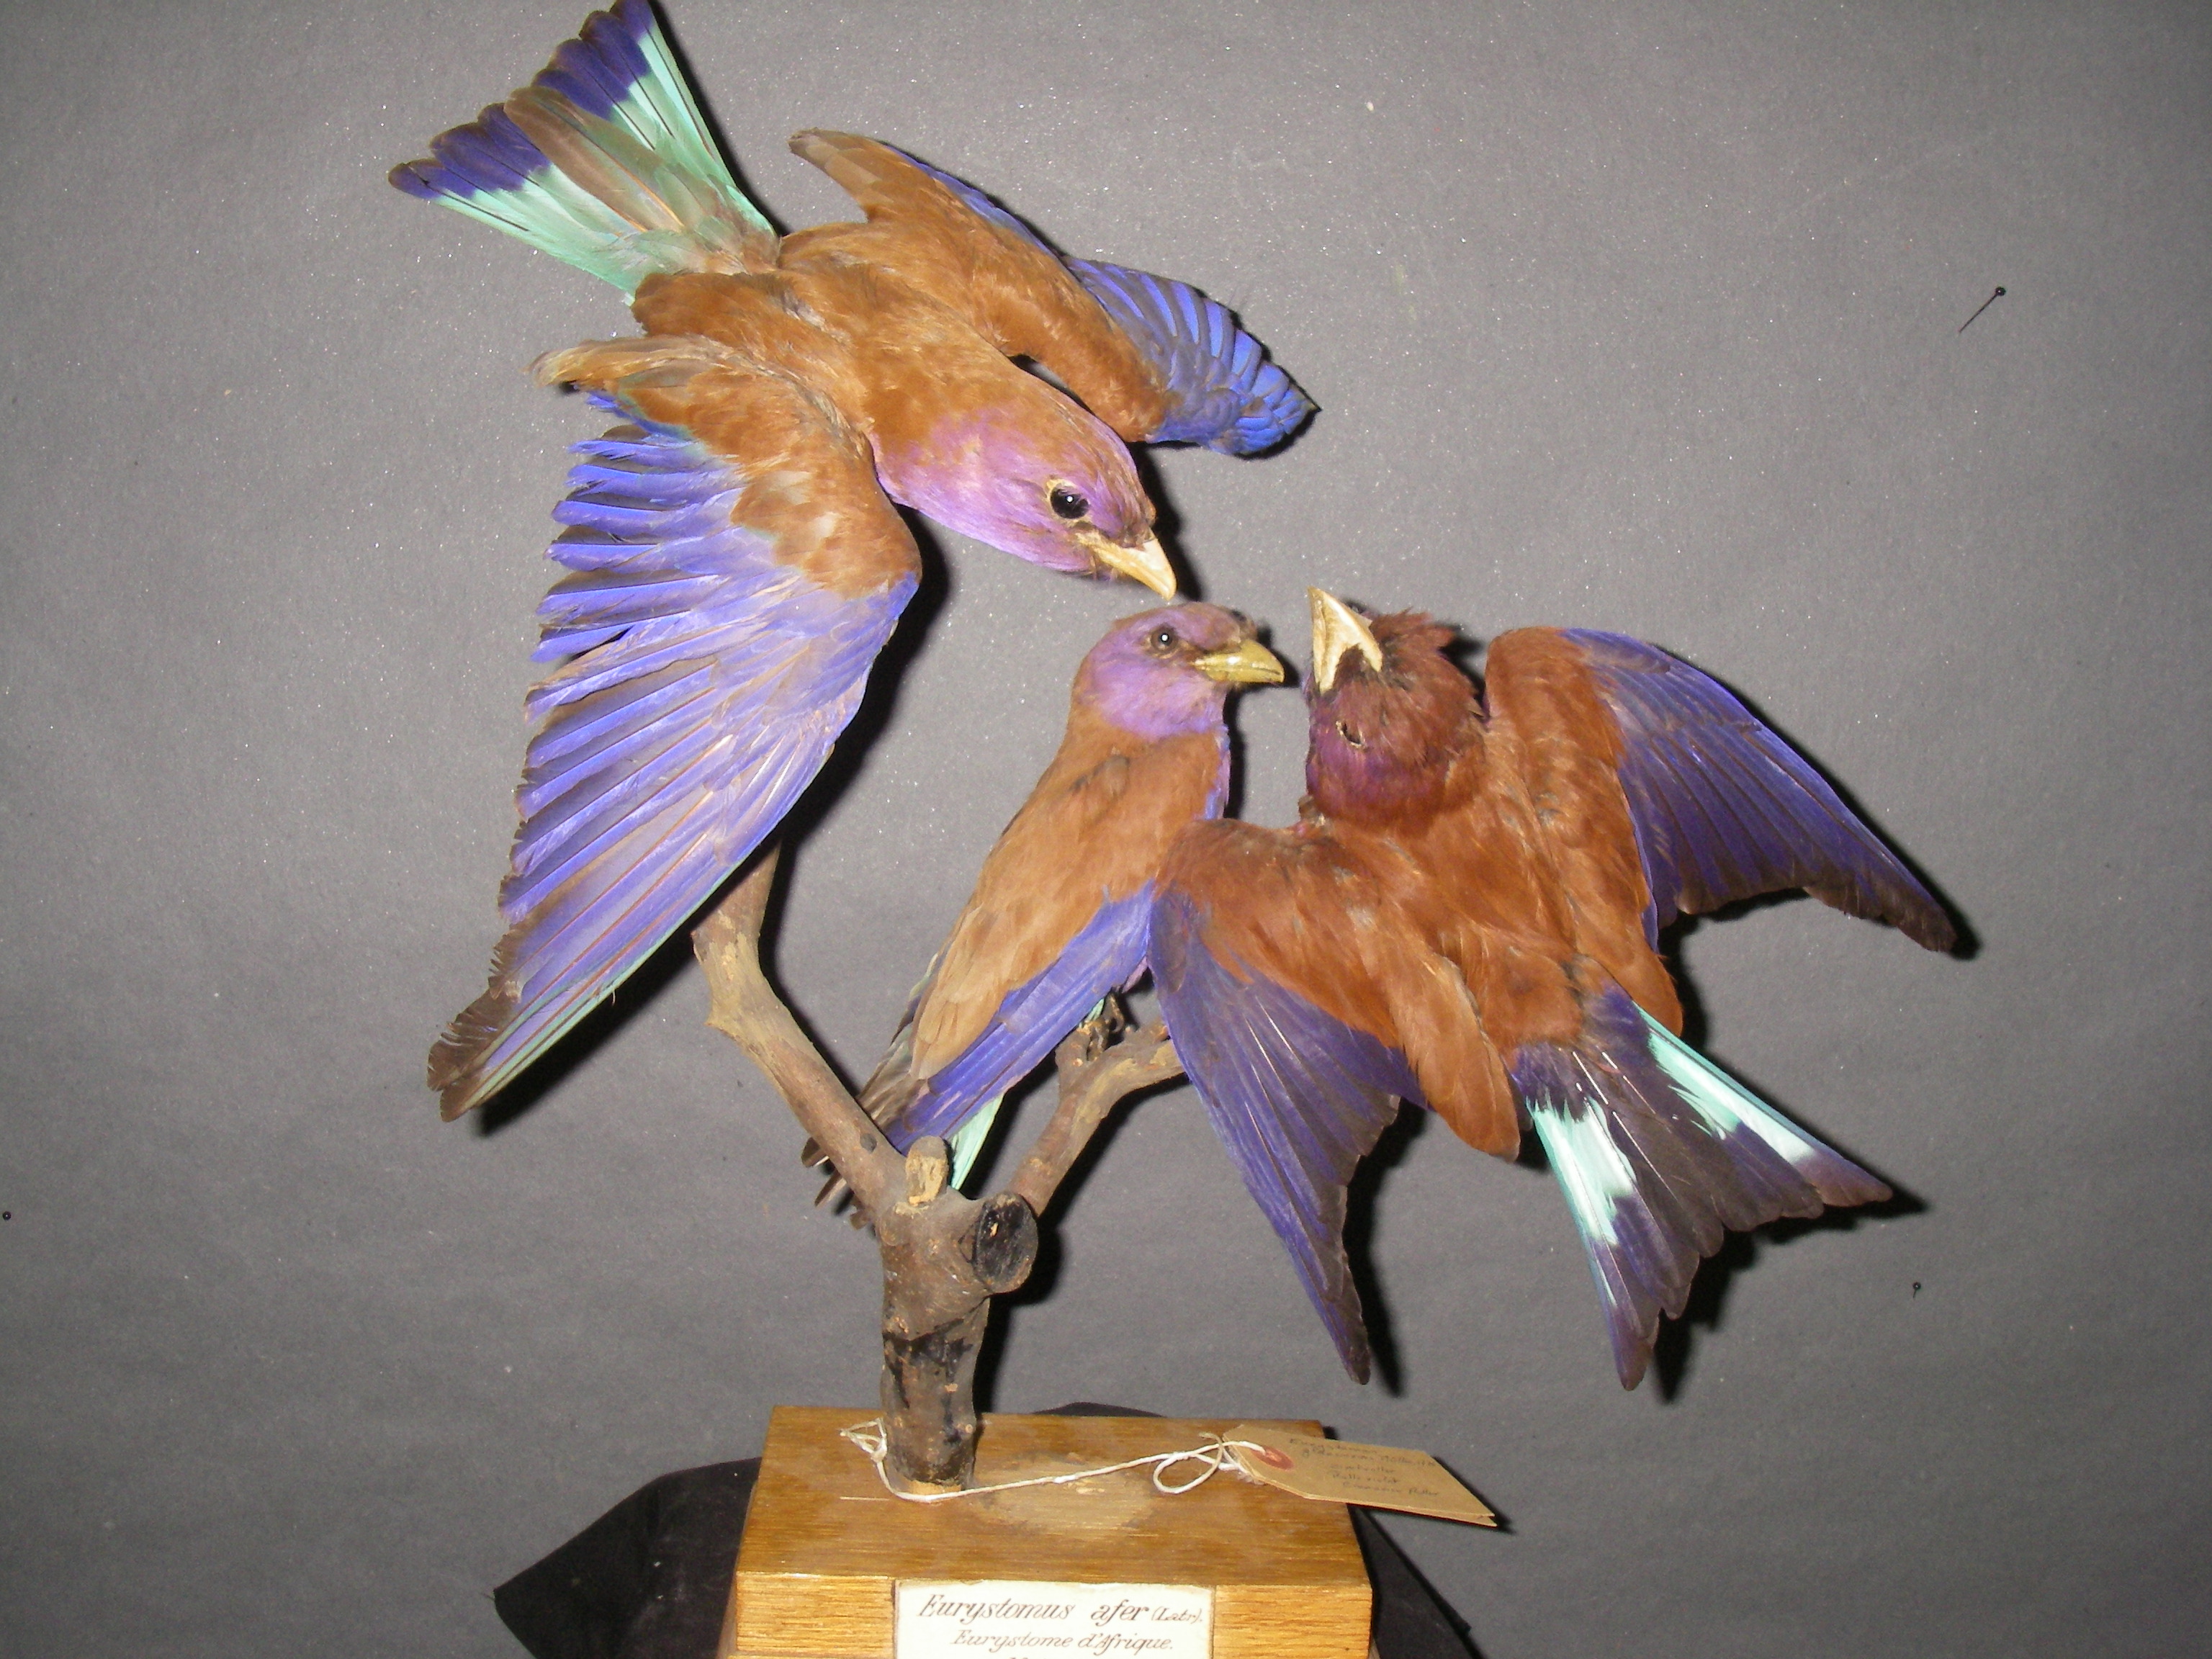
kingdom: Animalia
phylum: Chordata
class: Aves
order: Coraciiformes
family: Coraciidae
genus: Eurystomus
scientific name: Eurystomus glaucurus
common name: Broad-billed roller
